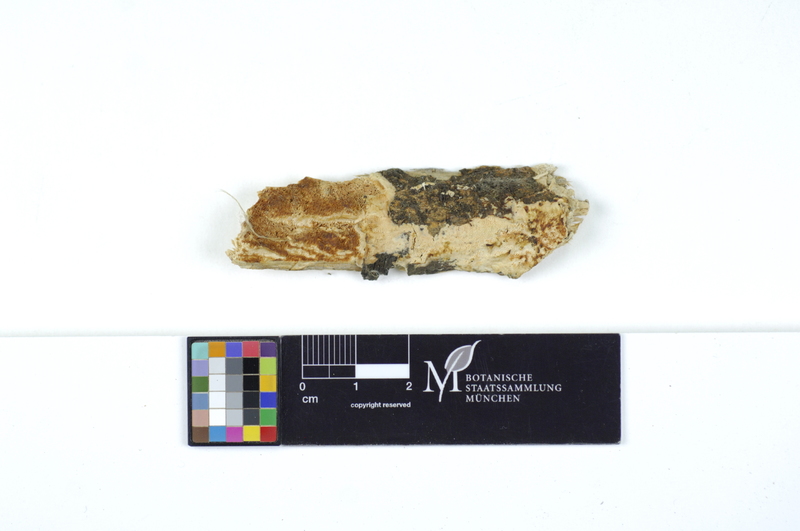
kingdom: Fungi
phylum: Basidiomycota
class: Agaricomycetes
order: Polyporales
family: Irpicaceae
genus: Resiniporus
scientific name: Resiniporus resinascens
